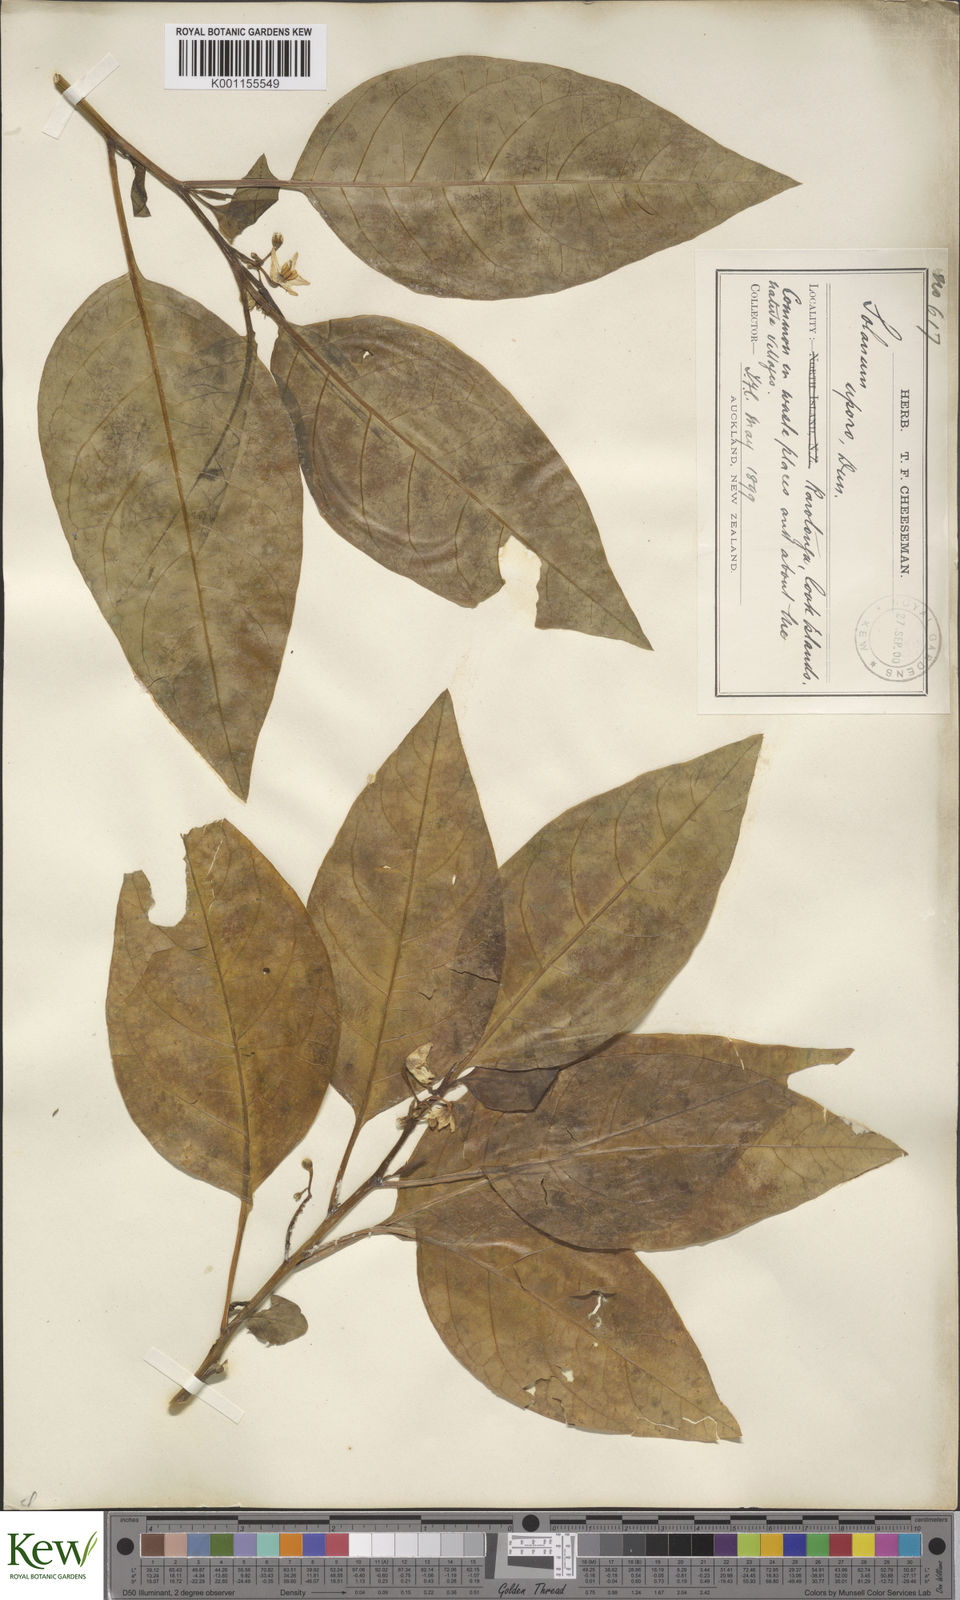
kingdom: Plantae
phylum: Tracheophyta
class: Magnoliopsida
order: Solanales
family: Solanaceae
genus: Solanum
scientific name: Solanum
